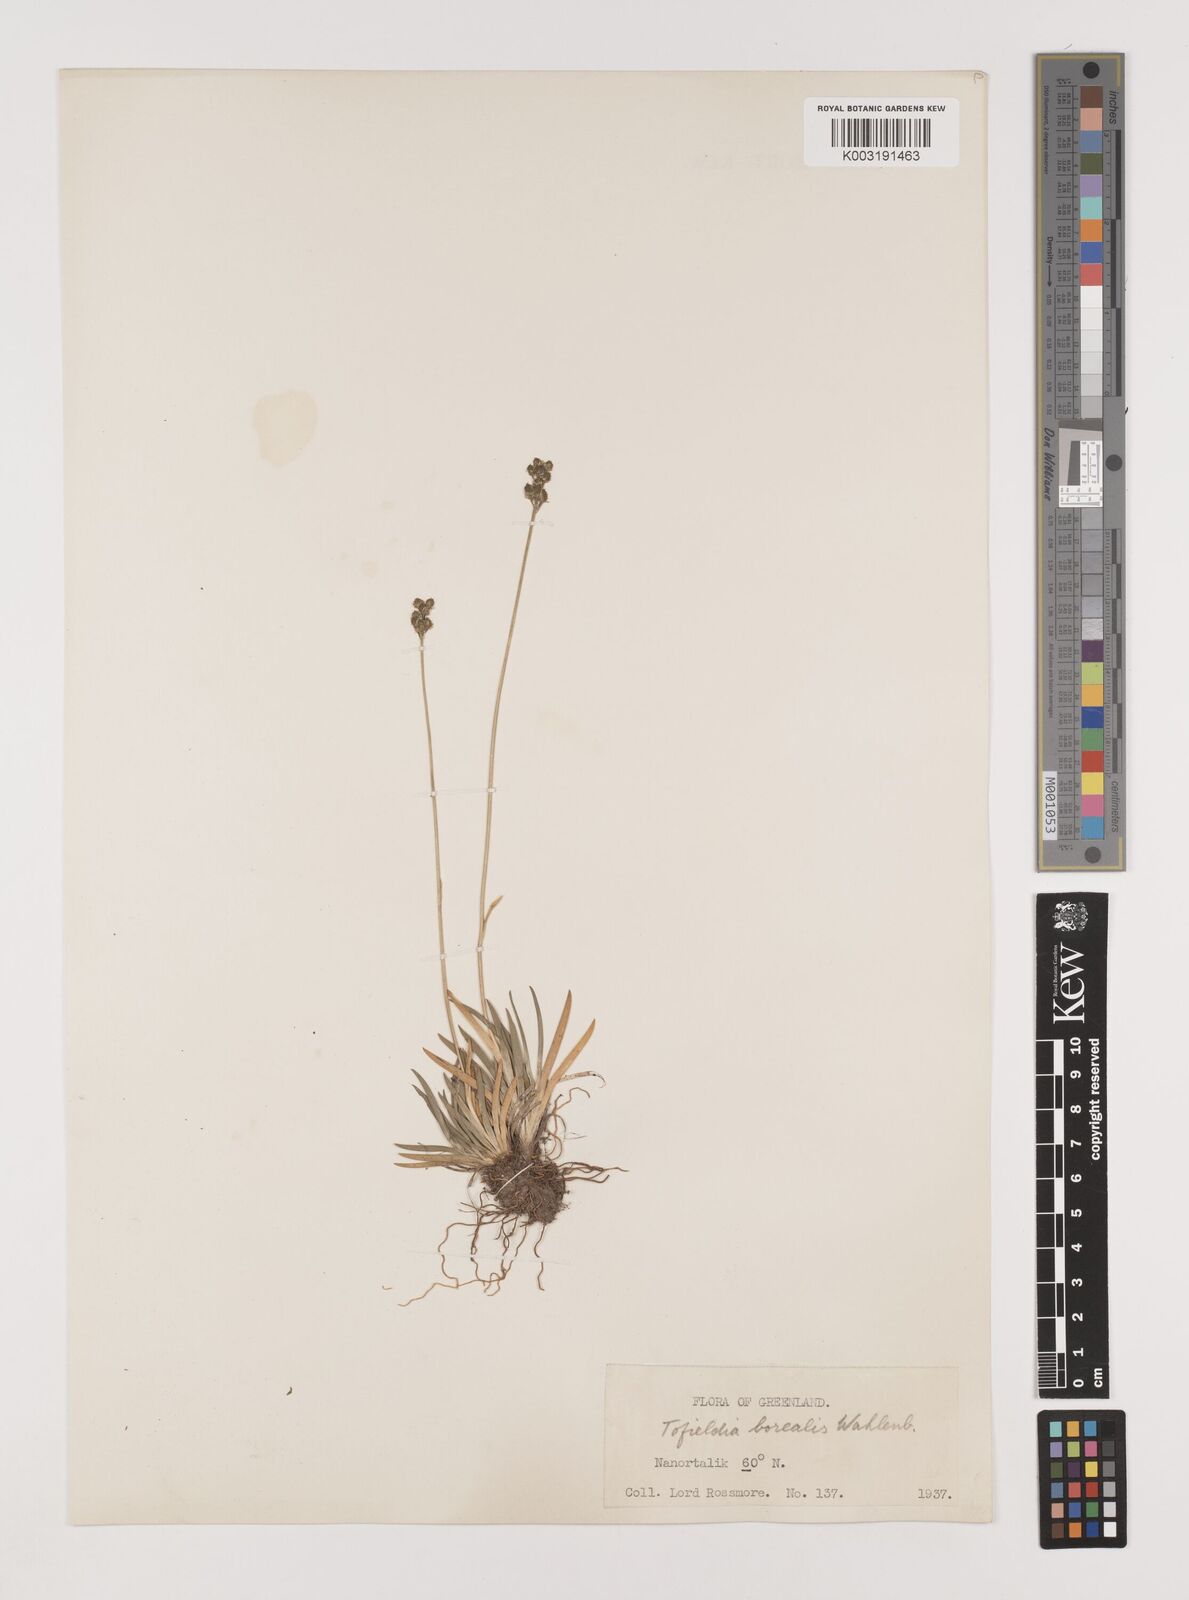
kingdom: Plantae
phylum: Tracheophyta
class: Liliopsida
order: Alismatales
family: Tofieldiaceae
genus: Tofieldia
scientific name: Tofieldia calyculata
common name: German-asphodel
